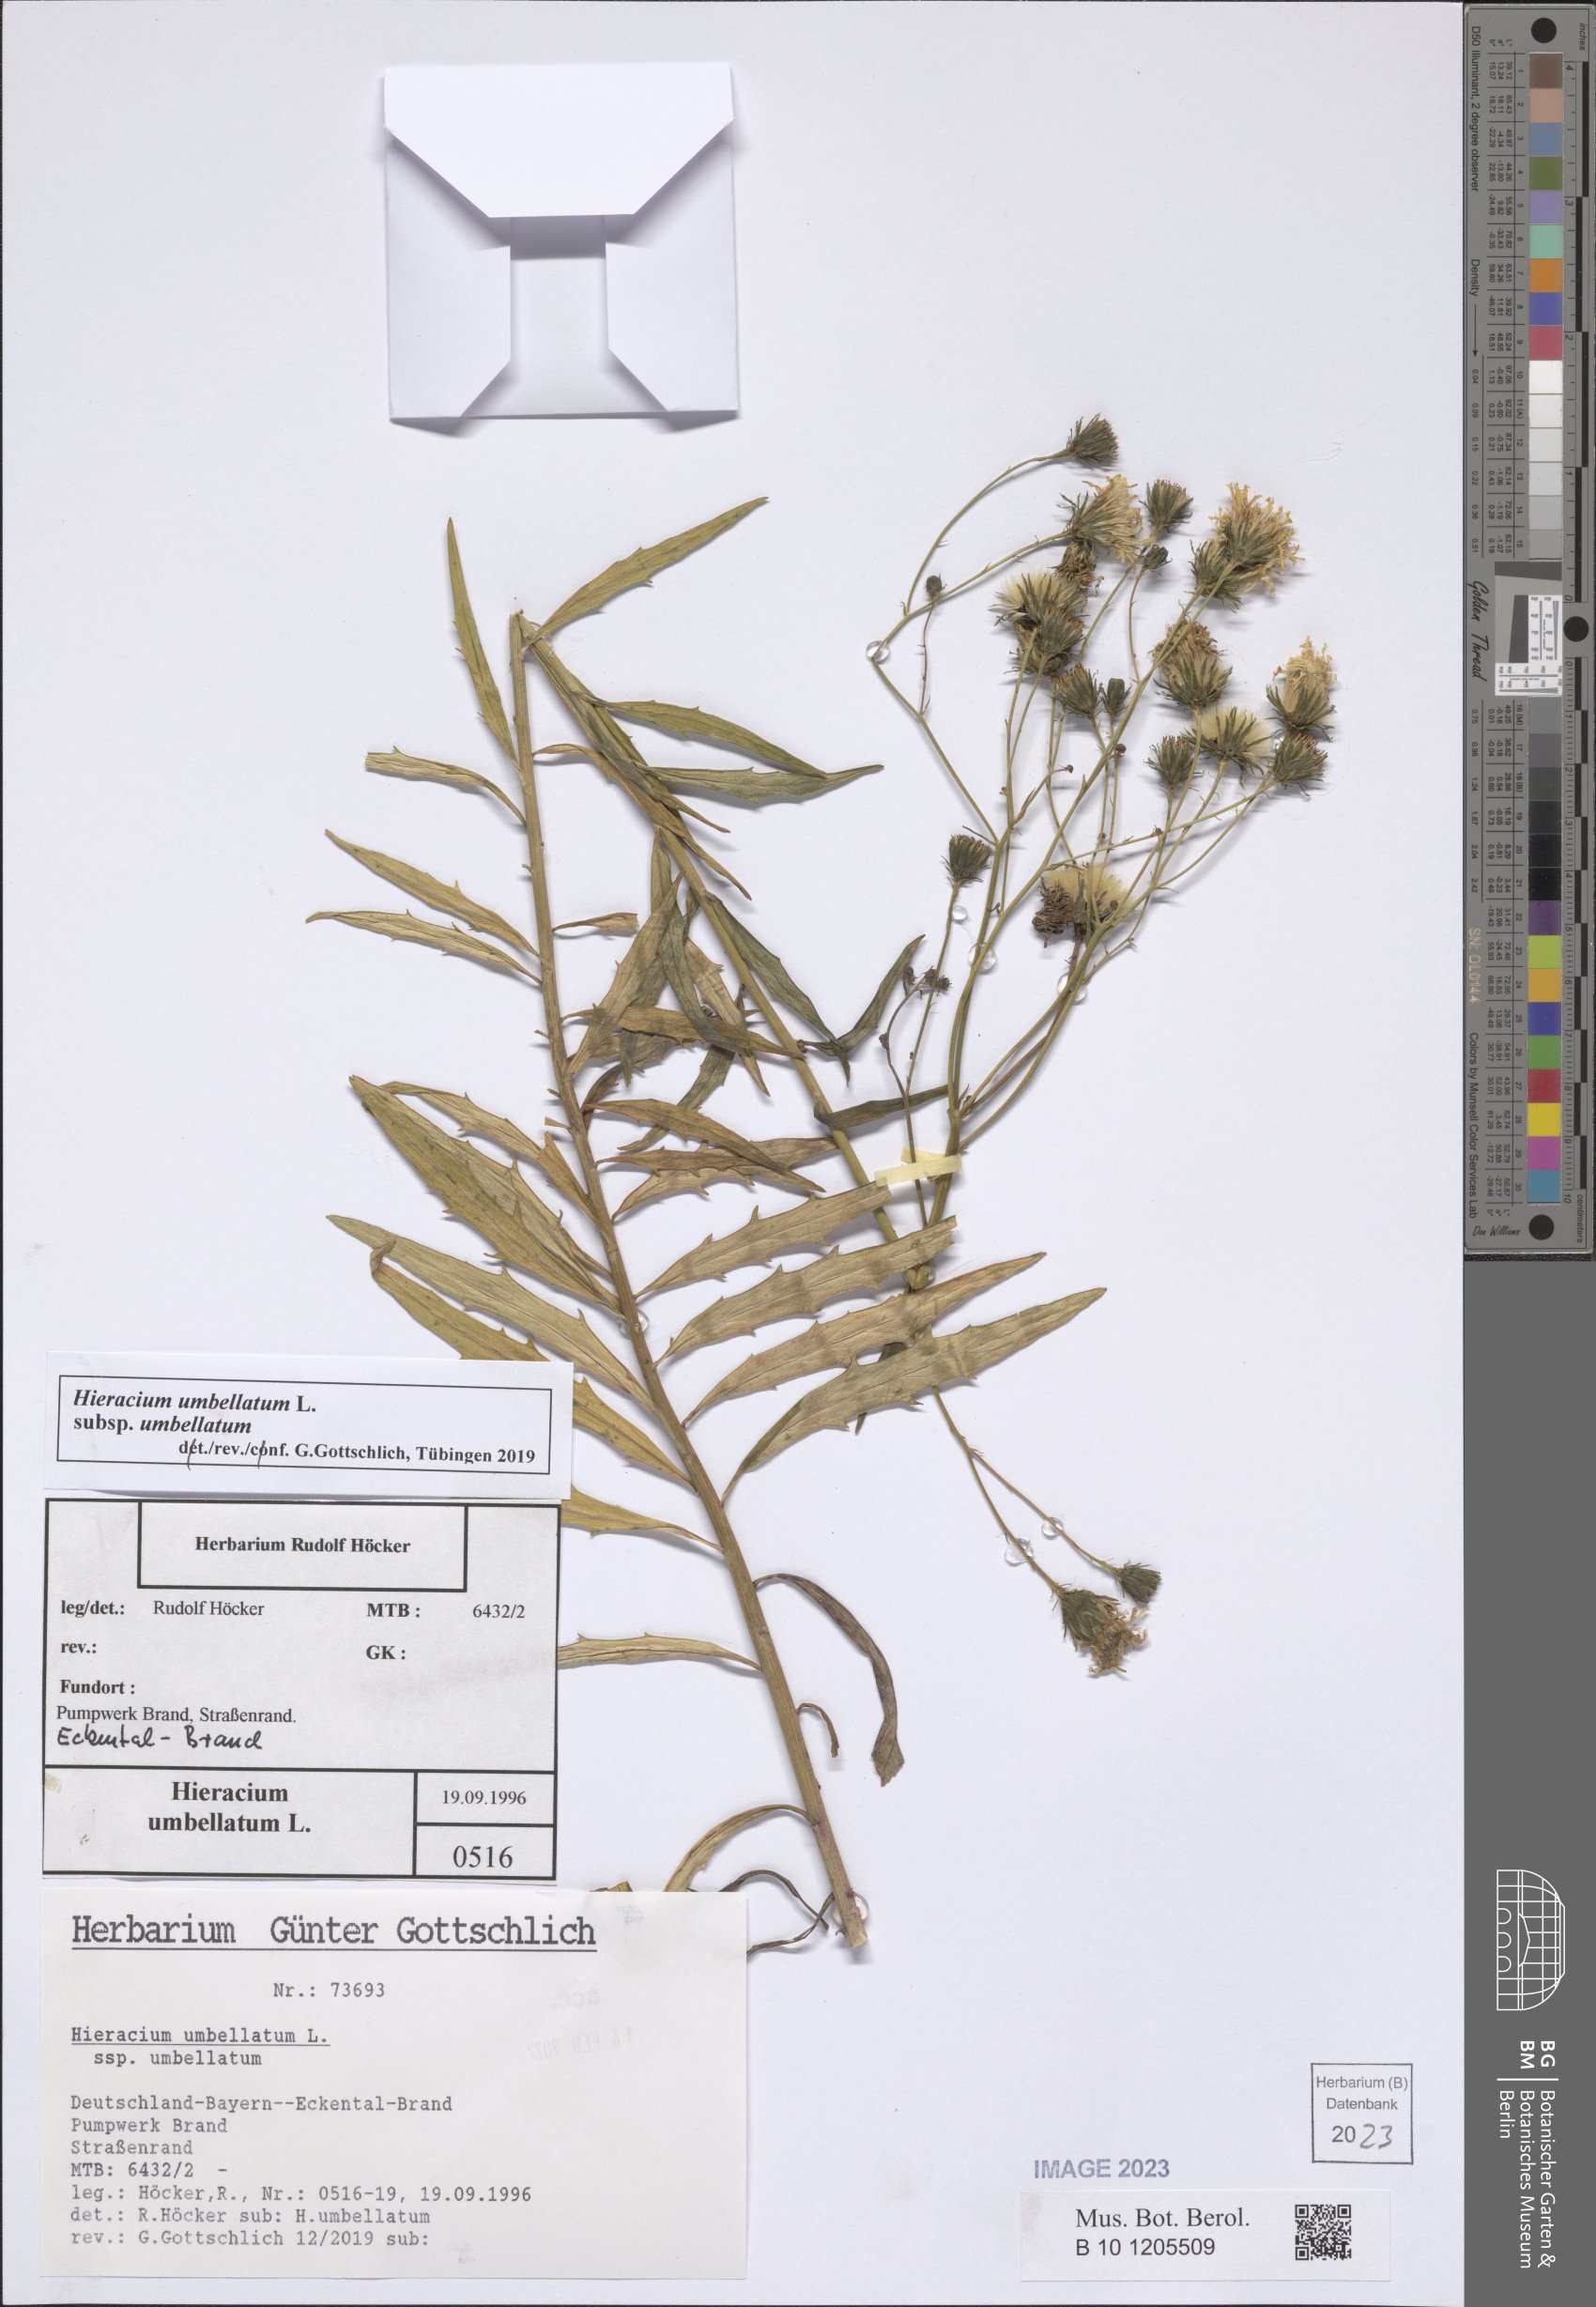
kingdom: Plantae
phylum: Tracheophyta
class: Magnoliopsida
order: Asterales
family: Asteraceae
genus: Hieracium
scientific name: Hieracium umbellatum
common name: Northern hawkweed
